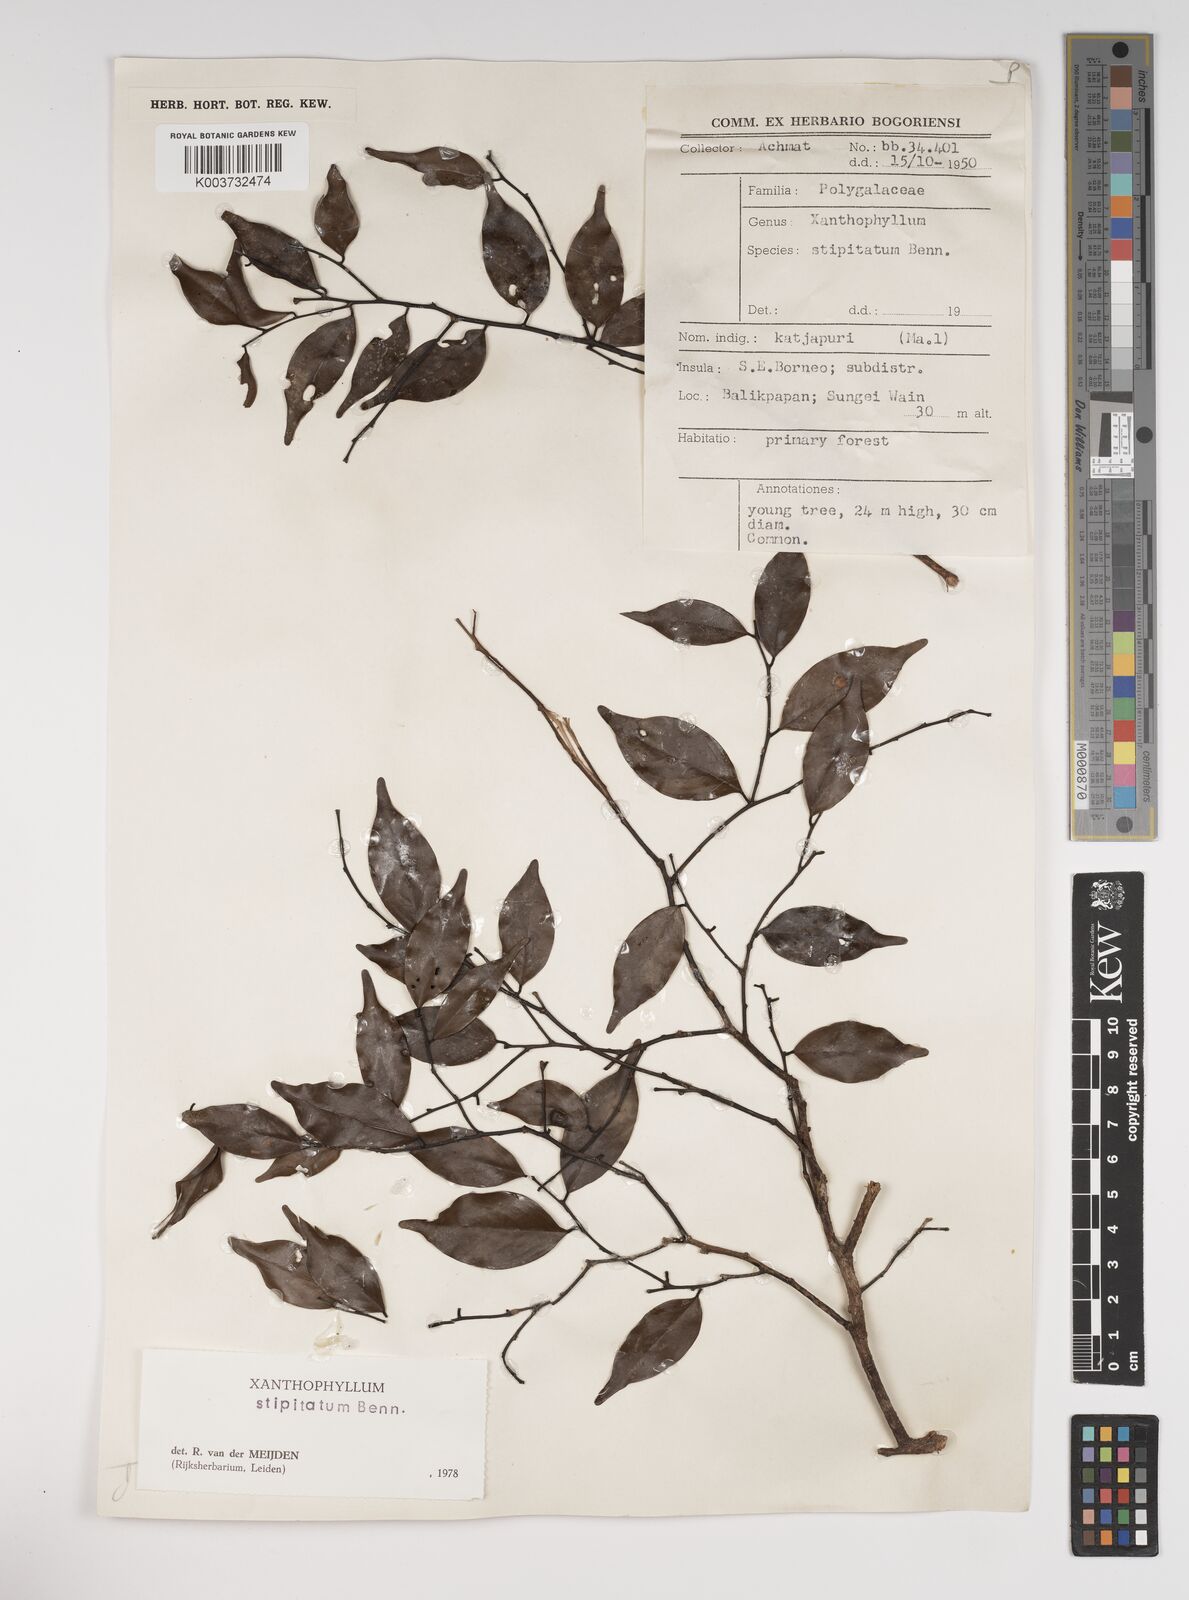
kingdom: Plantae
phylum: Tracheophyta
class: Magnoliopsida
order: Fabales
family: Polygalaceae
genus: Xanthophyllum
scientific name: Xanthophyllum stipitatum
